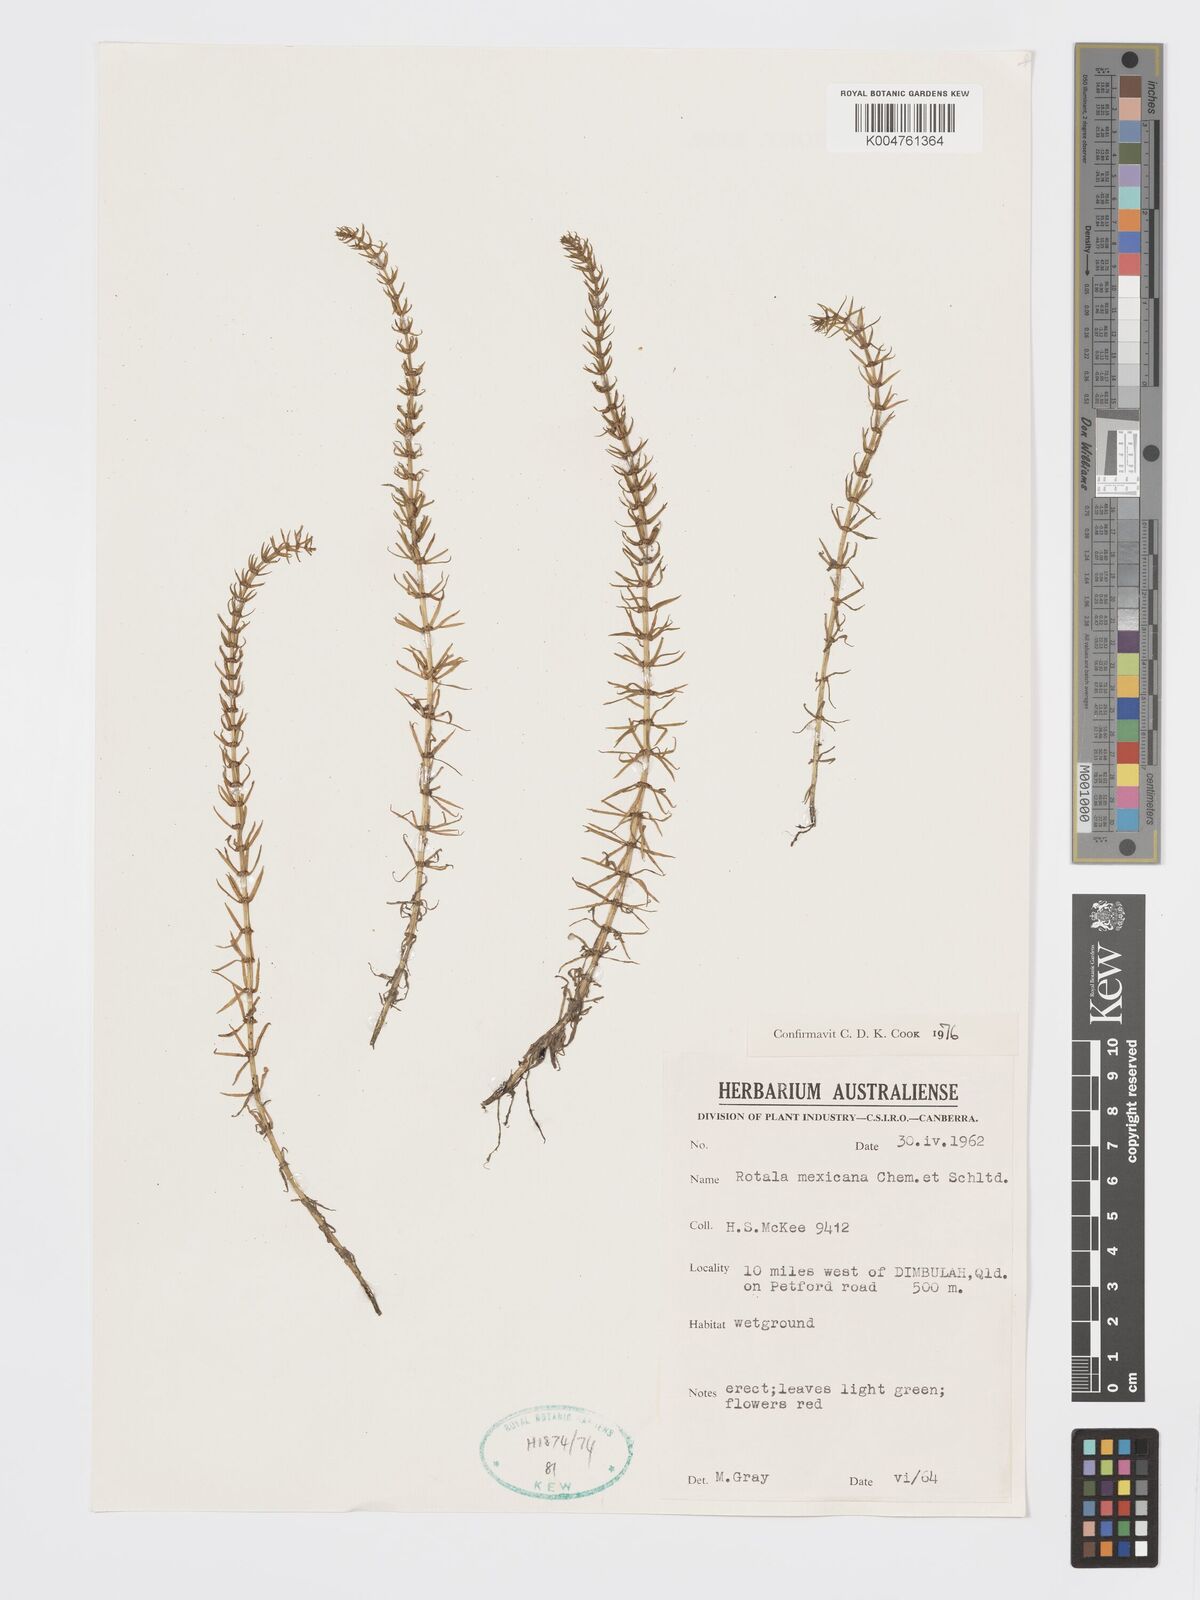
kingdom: Plantae
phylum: Tracheophyta
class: Magnoliopsida
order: Myrtales
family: Lythraceae
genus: Rotala
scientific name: Rotala mexicana
